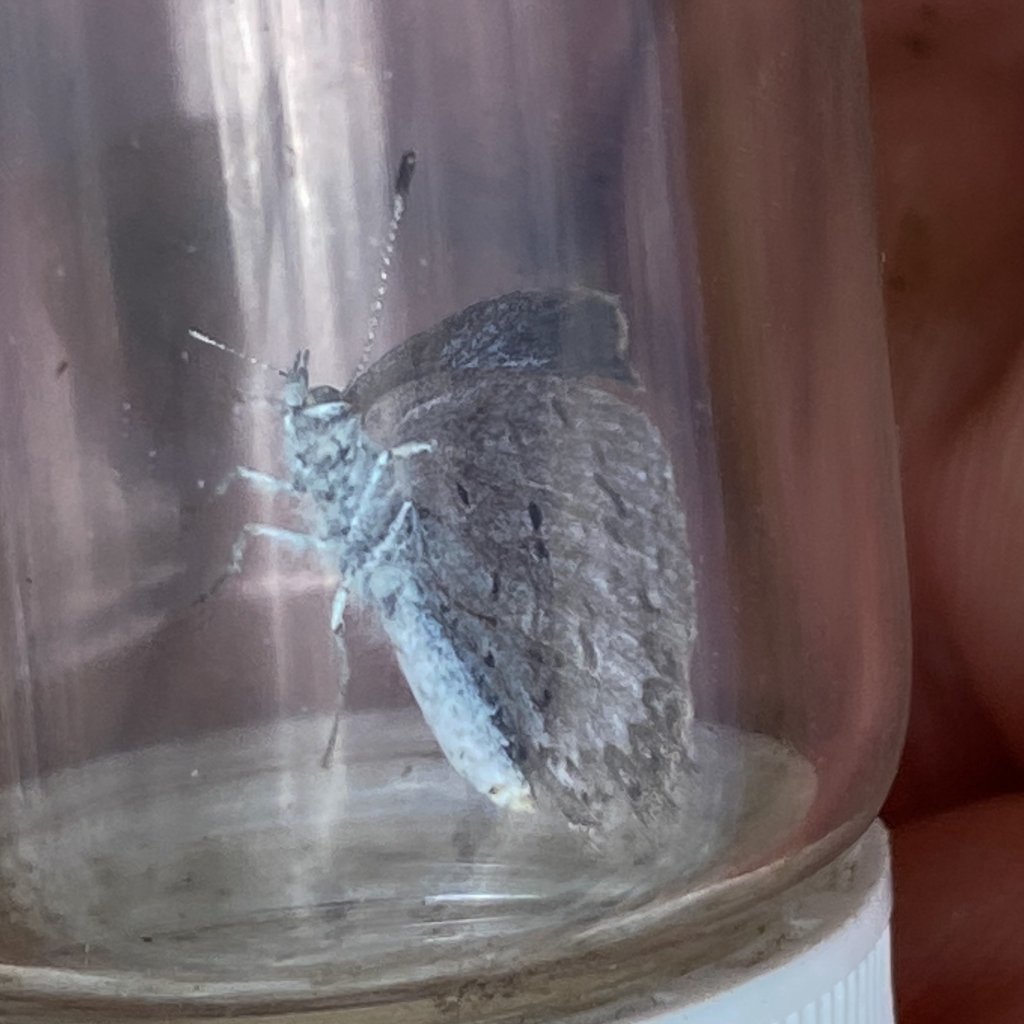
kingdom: Animalia
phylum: Arthropoda
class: Insecta
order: Lepidoptera
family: Lycaenidae
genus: Celastrina
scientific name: Celastrina lucia
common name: Northern Spring Azure
